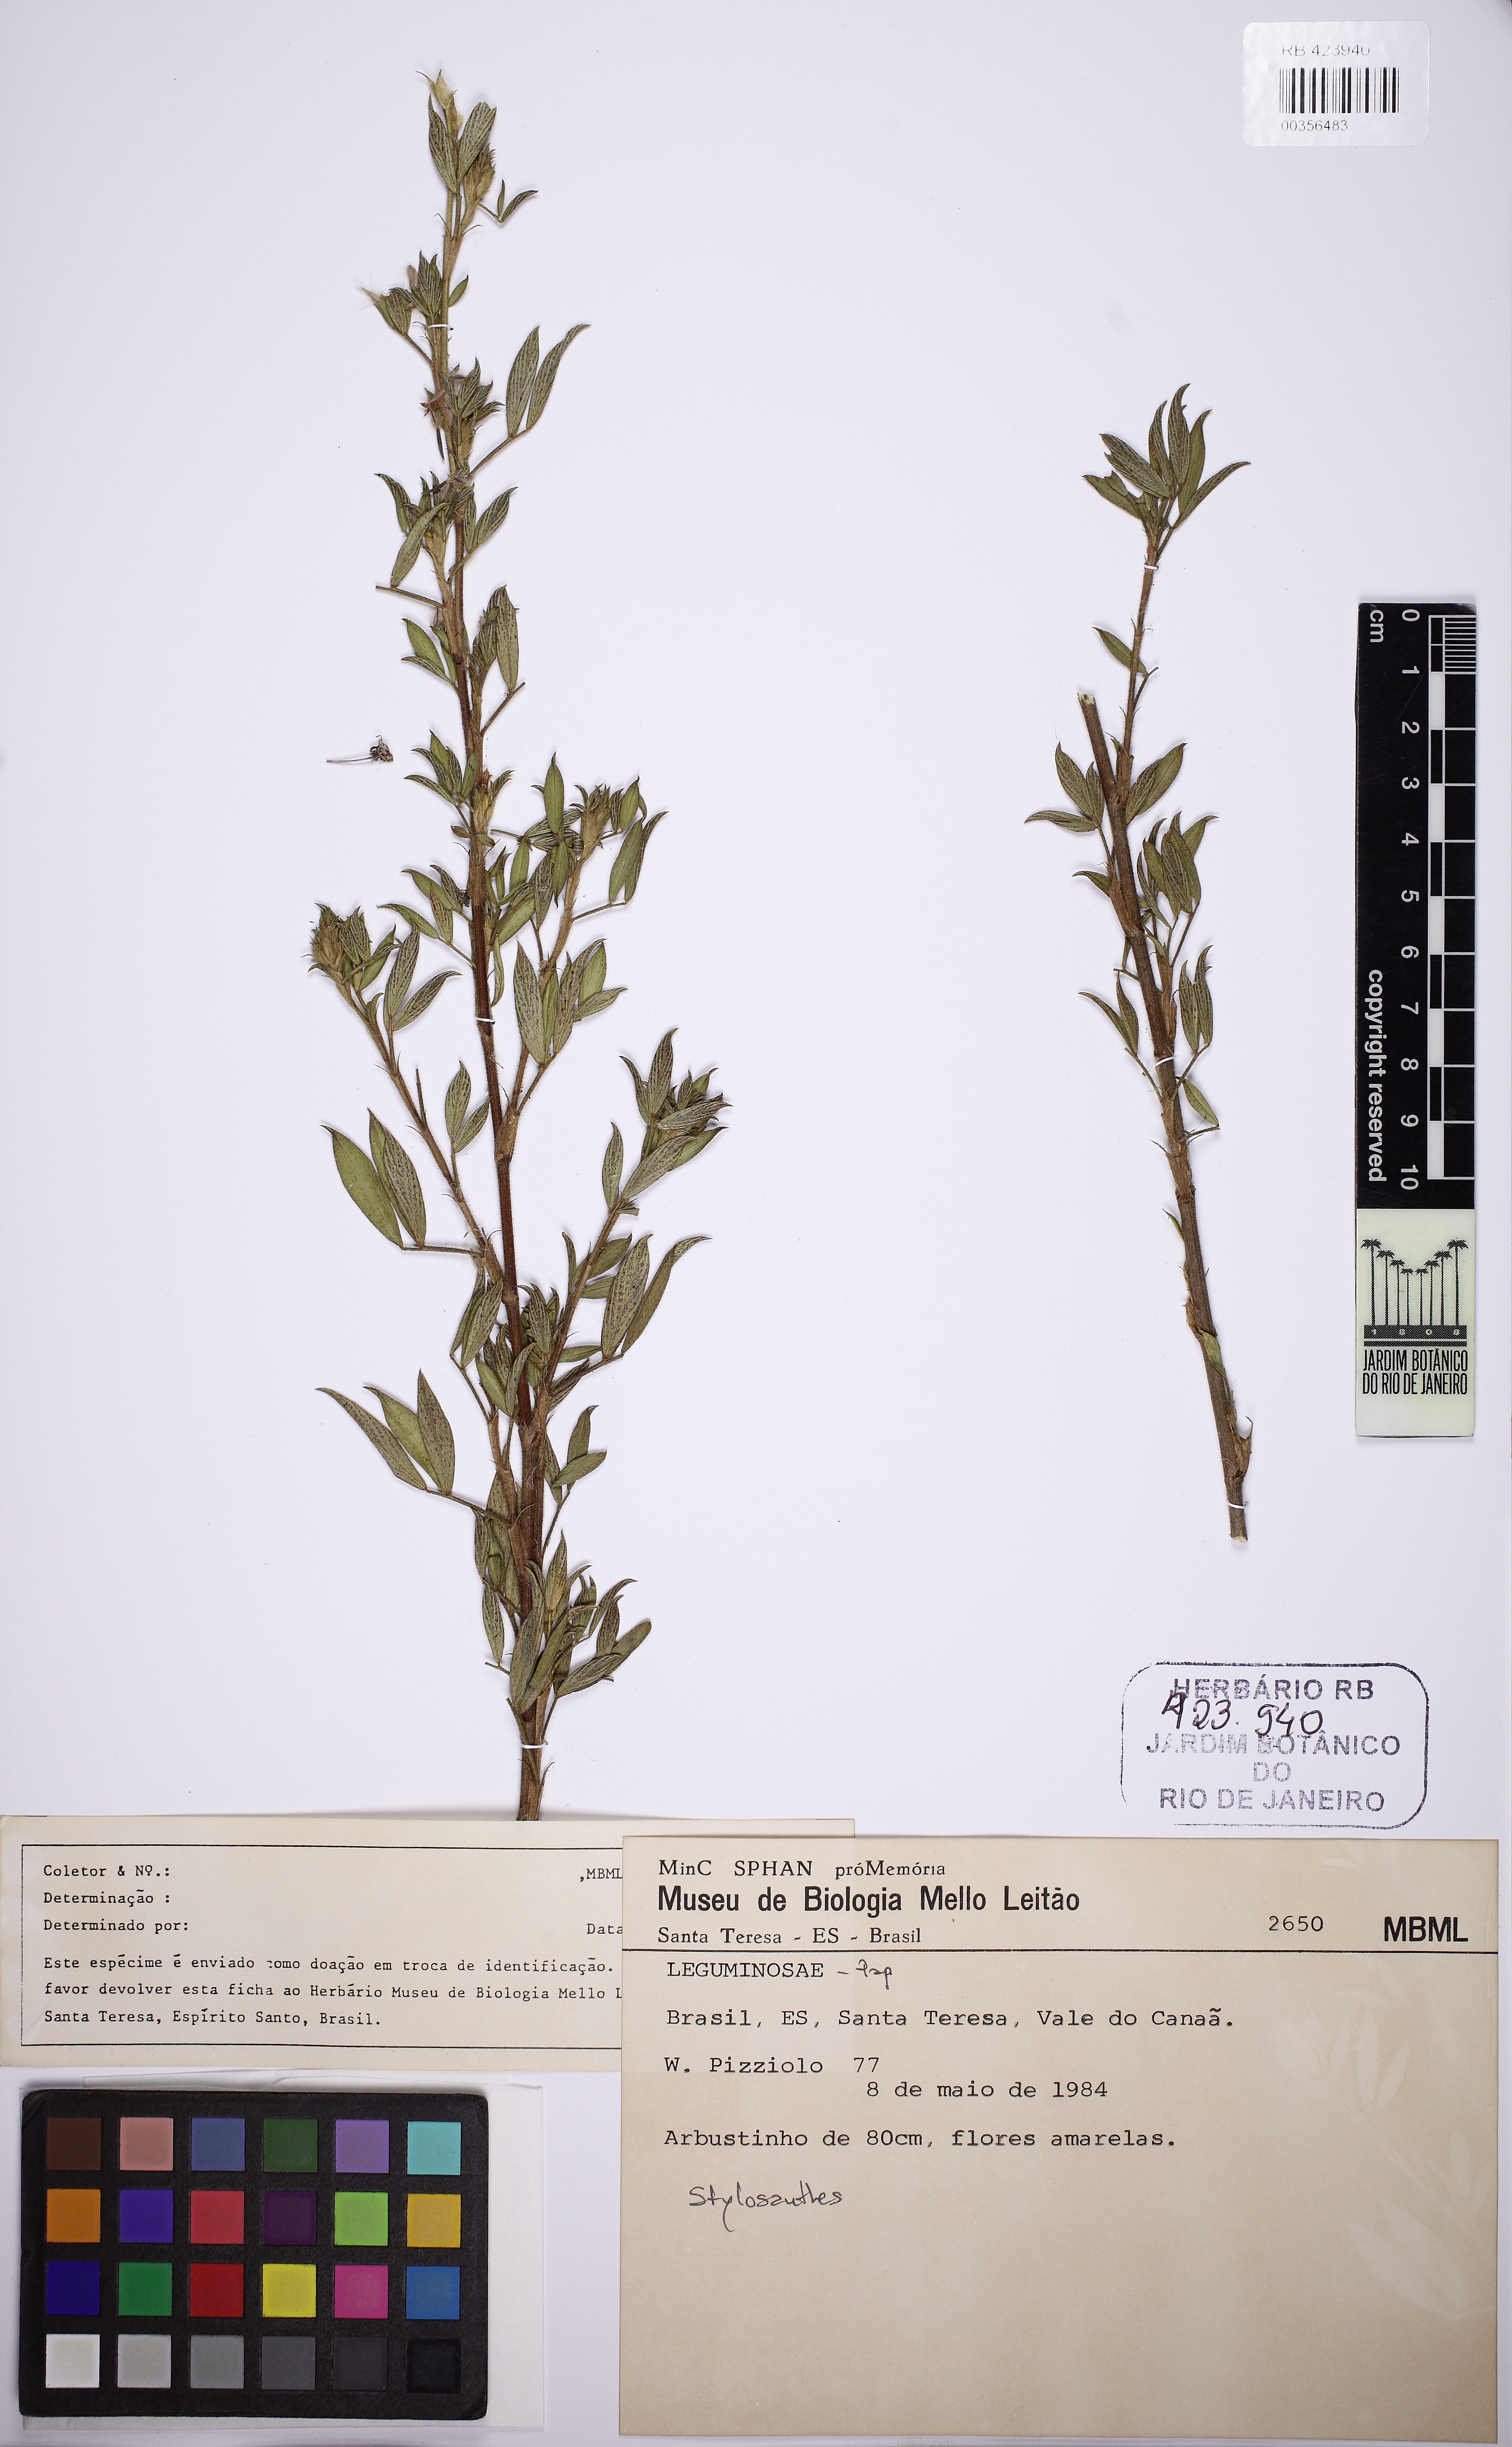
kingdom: Plantae
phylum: Tracheophyta
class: Magnoliopsida
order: Fabales
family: Fabaceae
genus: Stylosanthes
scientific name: Stylosanthes
